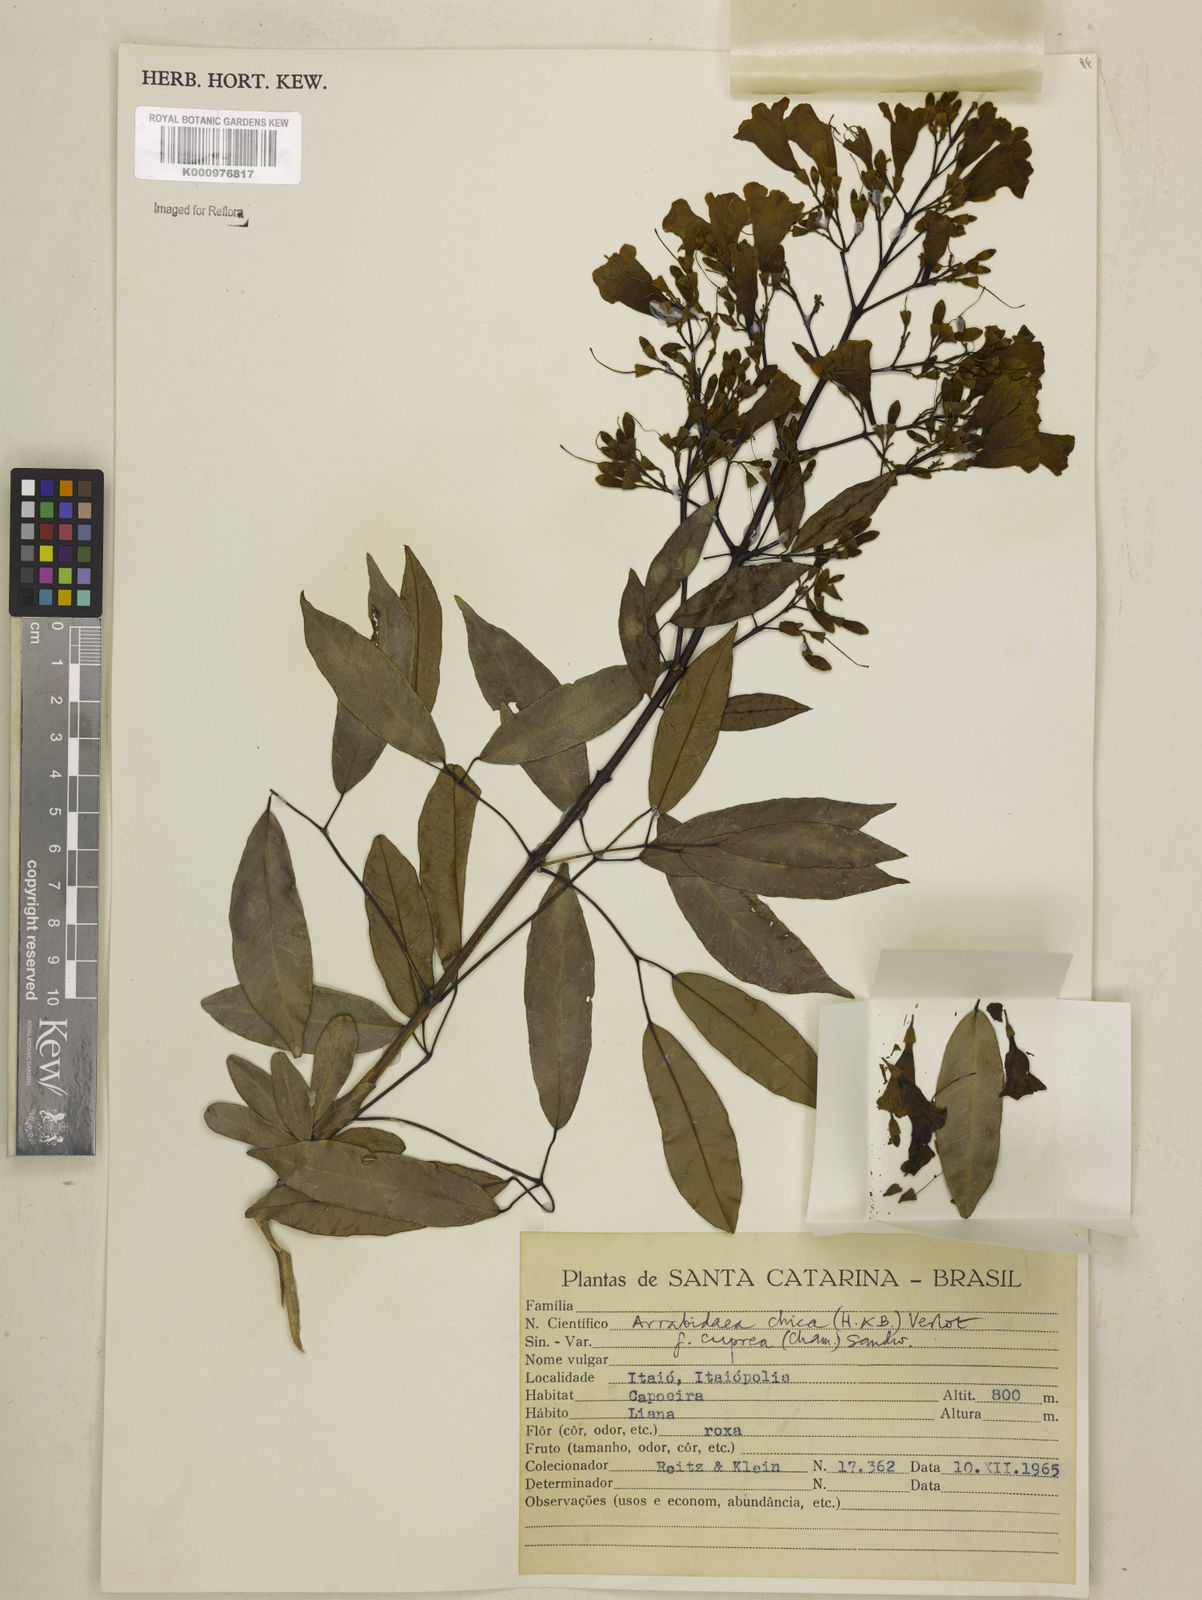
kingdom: Plantae
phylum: Tracheophyta
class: Magnoliopsida
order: Lamiales
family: Bignoniaceae
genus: Fridericia
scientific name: Fridericia chica
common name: Cricketvine
